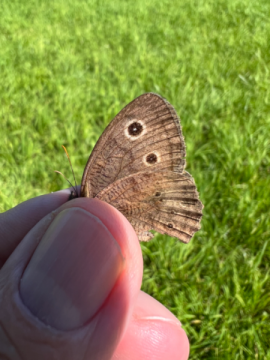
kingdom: Animalia
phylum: Arthropoda
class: Insecta
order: Lepidoptera
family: Nymphalidae
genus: Cercyonis
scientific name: Cercyonis pegala
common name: Common Wood-Nymph
